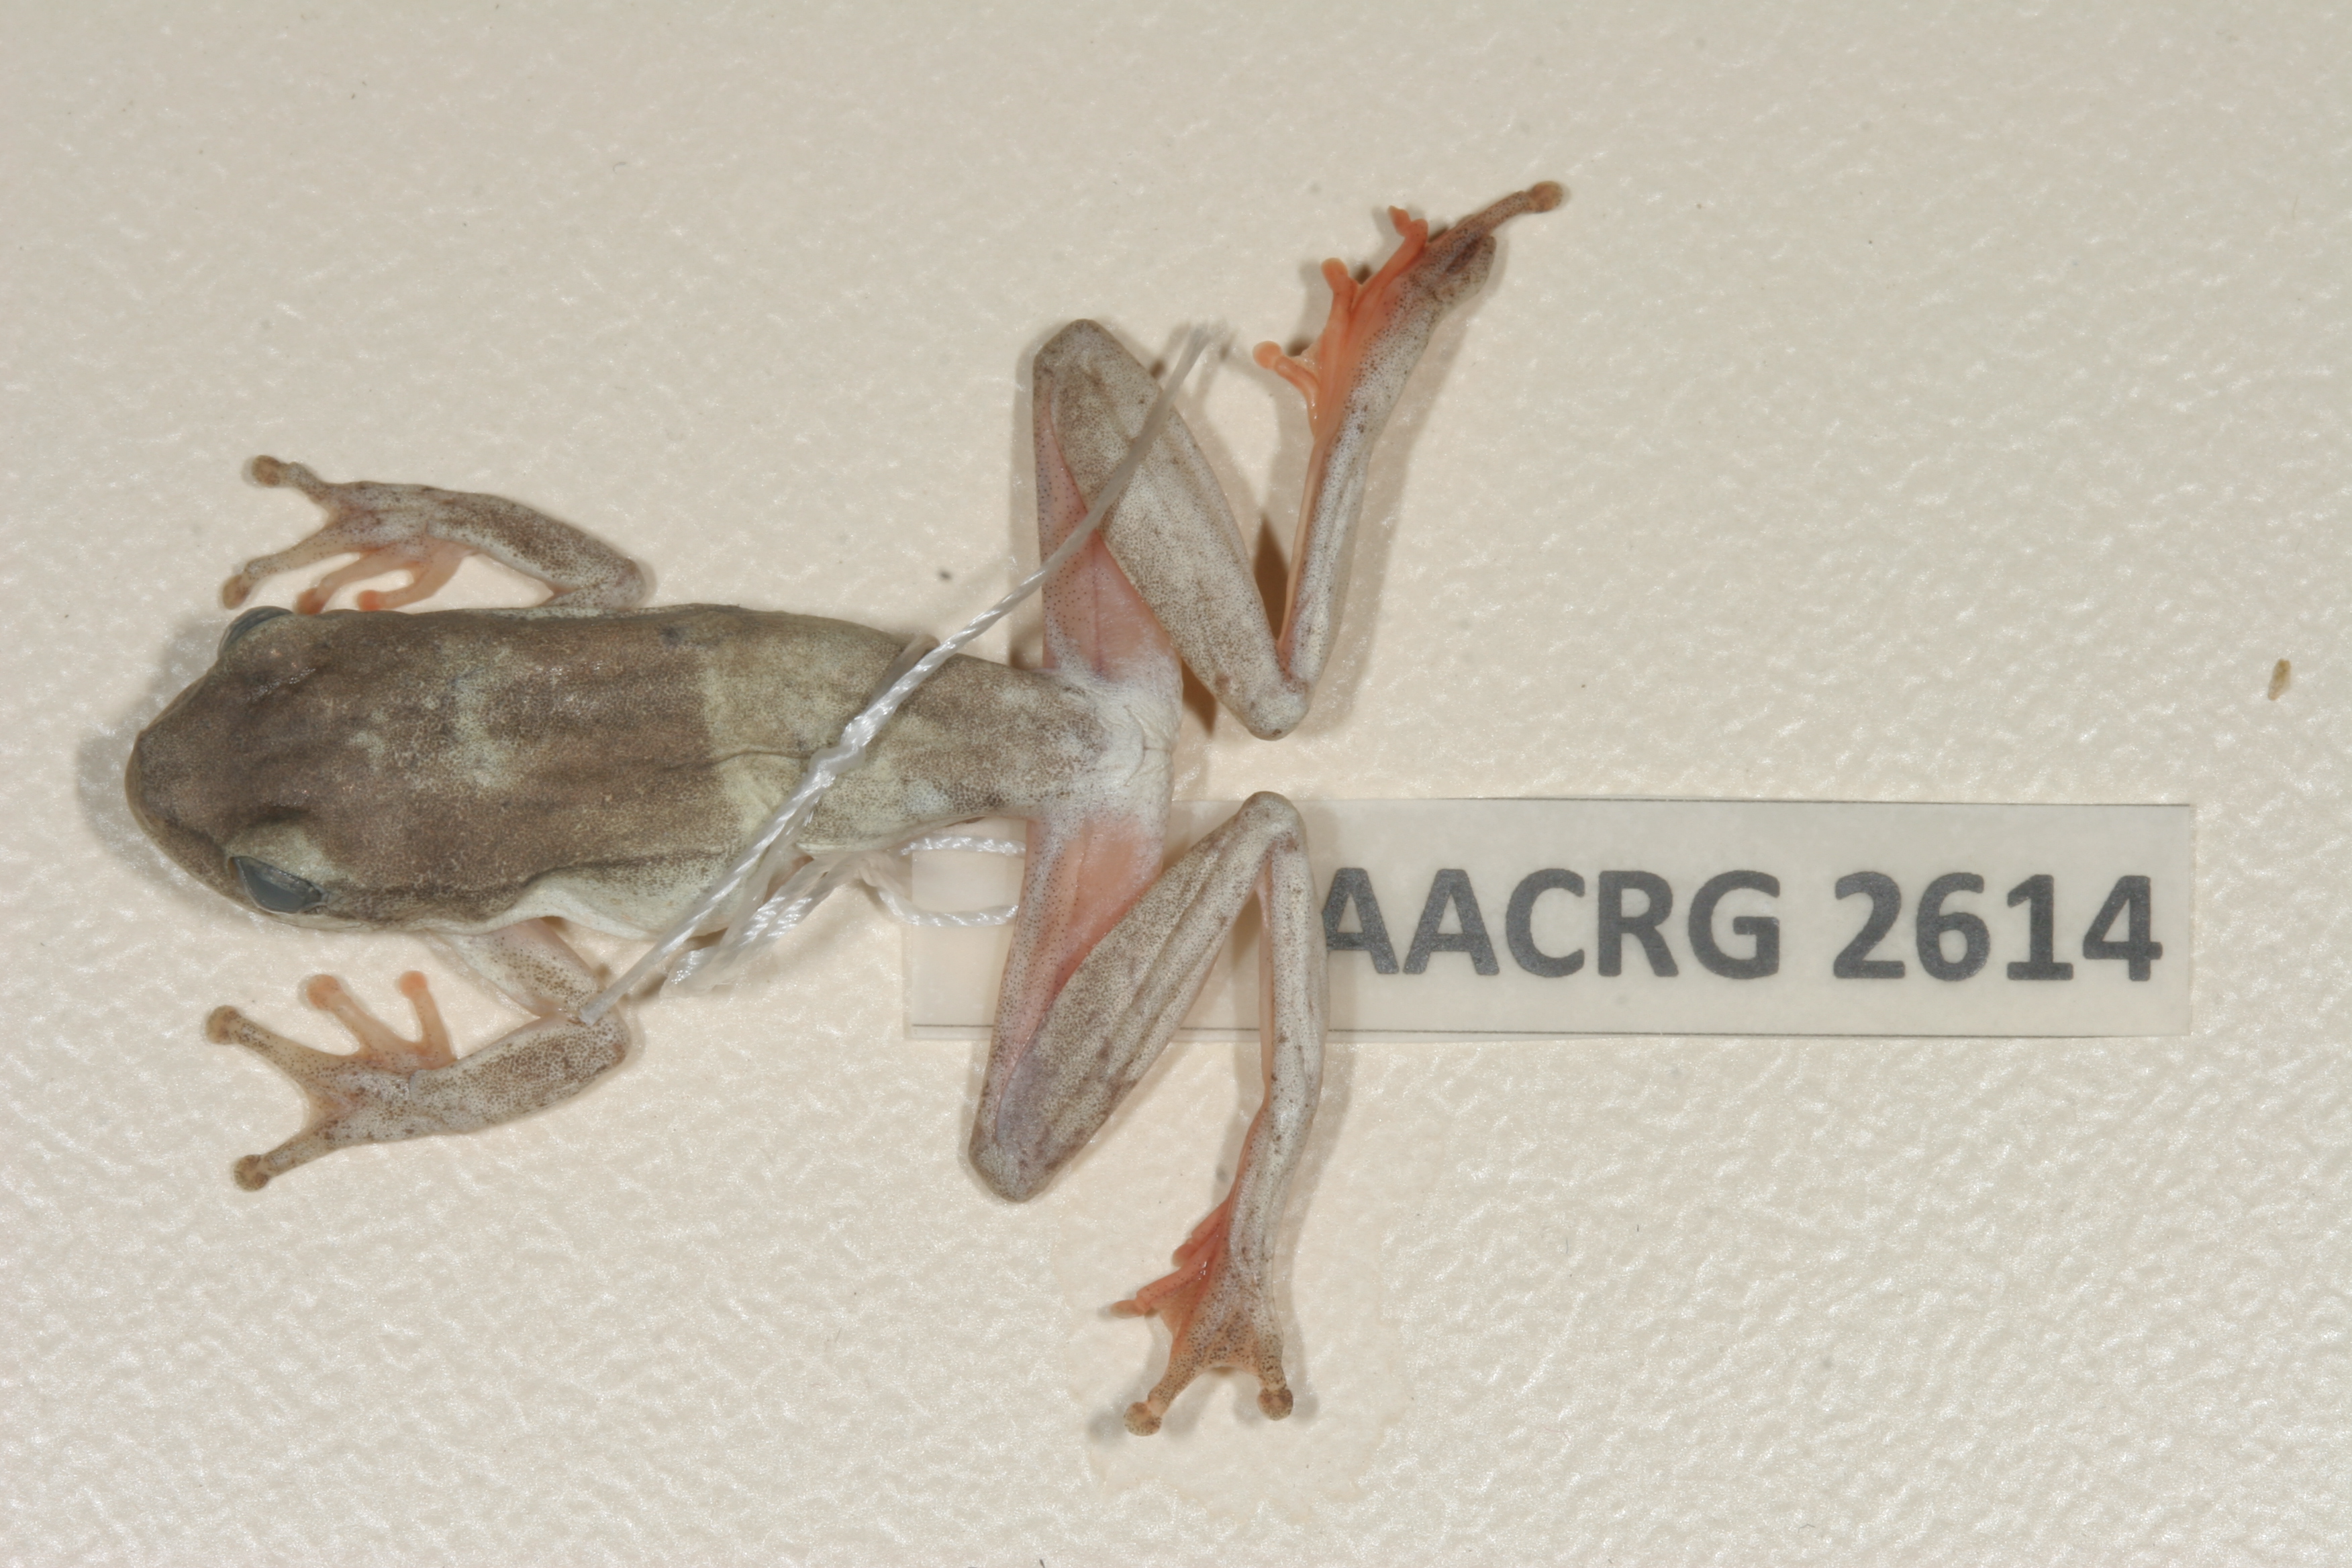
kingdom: Animalia
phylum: Chordata
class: Amphibia
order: Anura
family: Hyperoliidae
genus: Hyperolius
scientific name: Hyperolius marmoratus
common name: Painted reed frog
